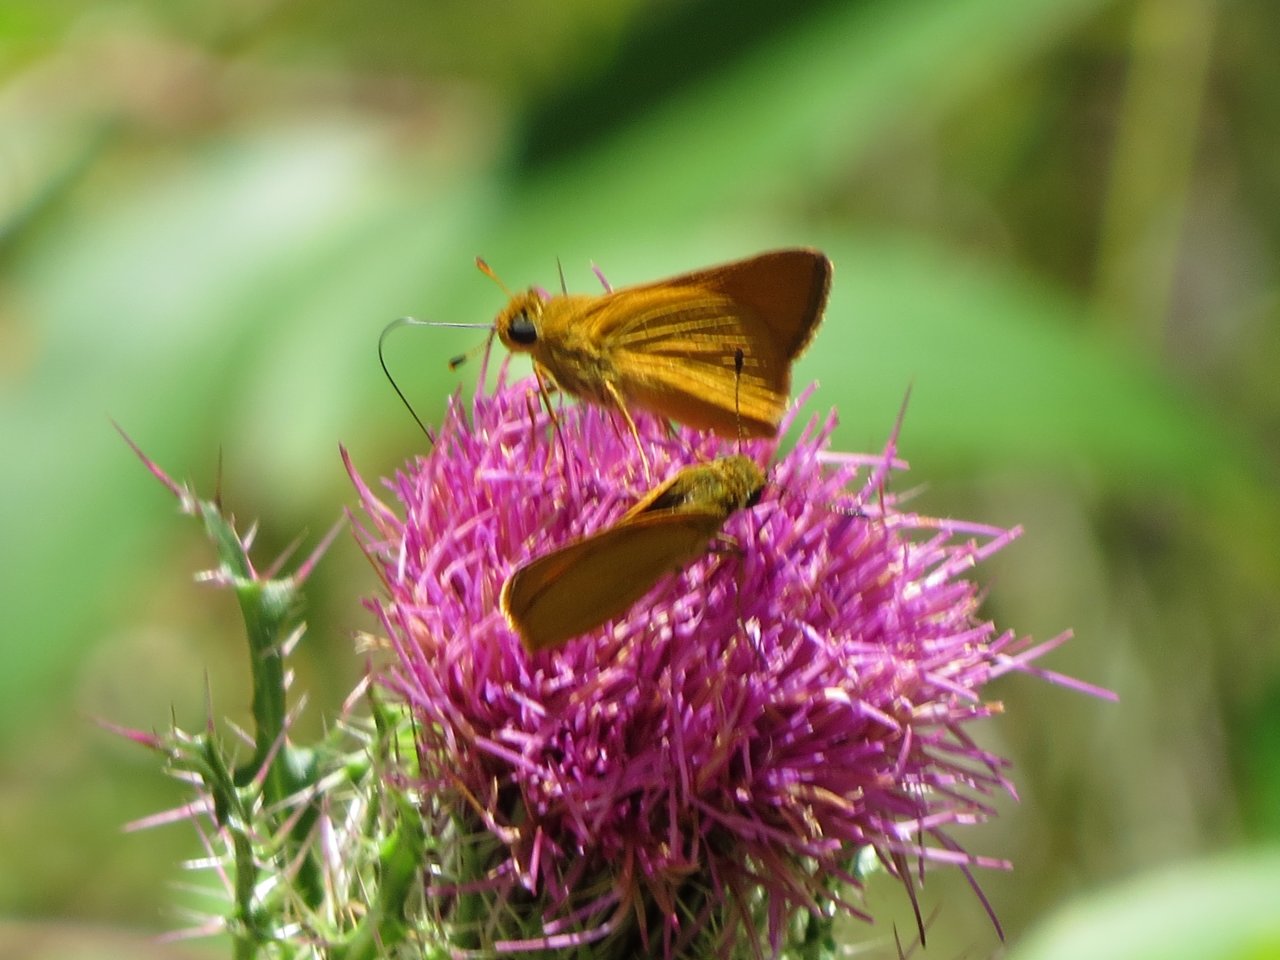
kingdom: Animalia
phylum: Arthropoda
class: Insecta
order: Lepidoptera
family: Hesperiidae
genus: Atrytone
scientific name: Atrytone delaware
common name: Delaware Skipper
